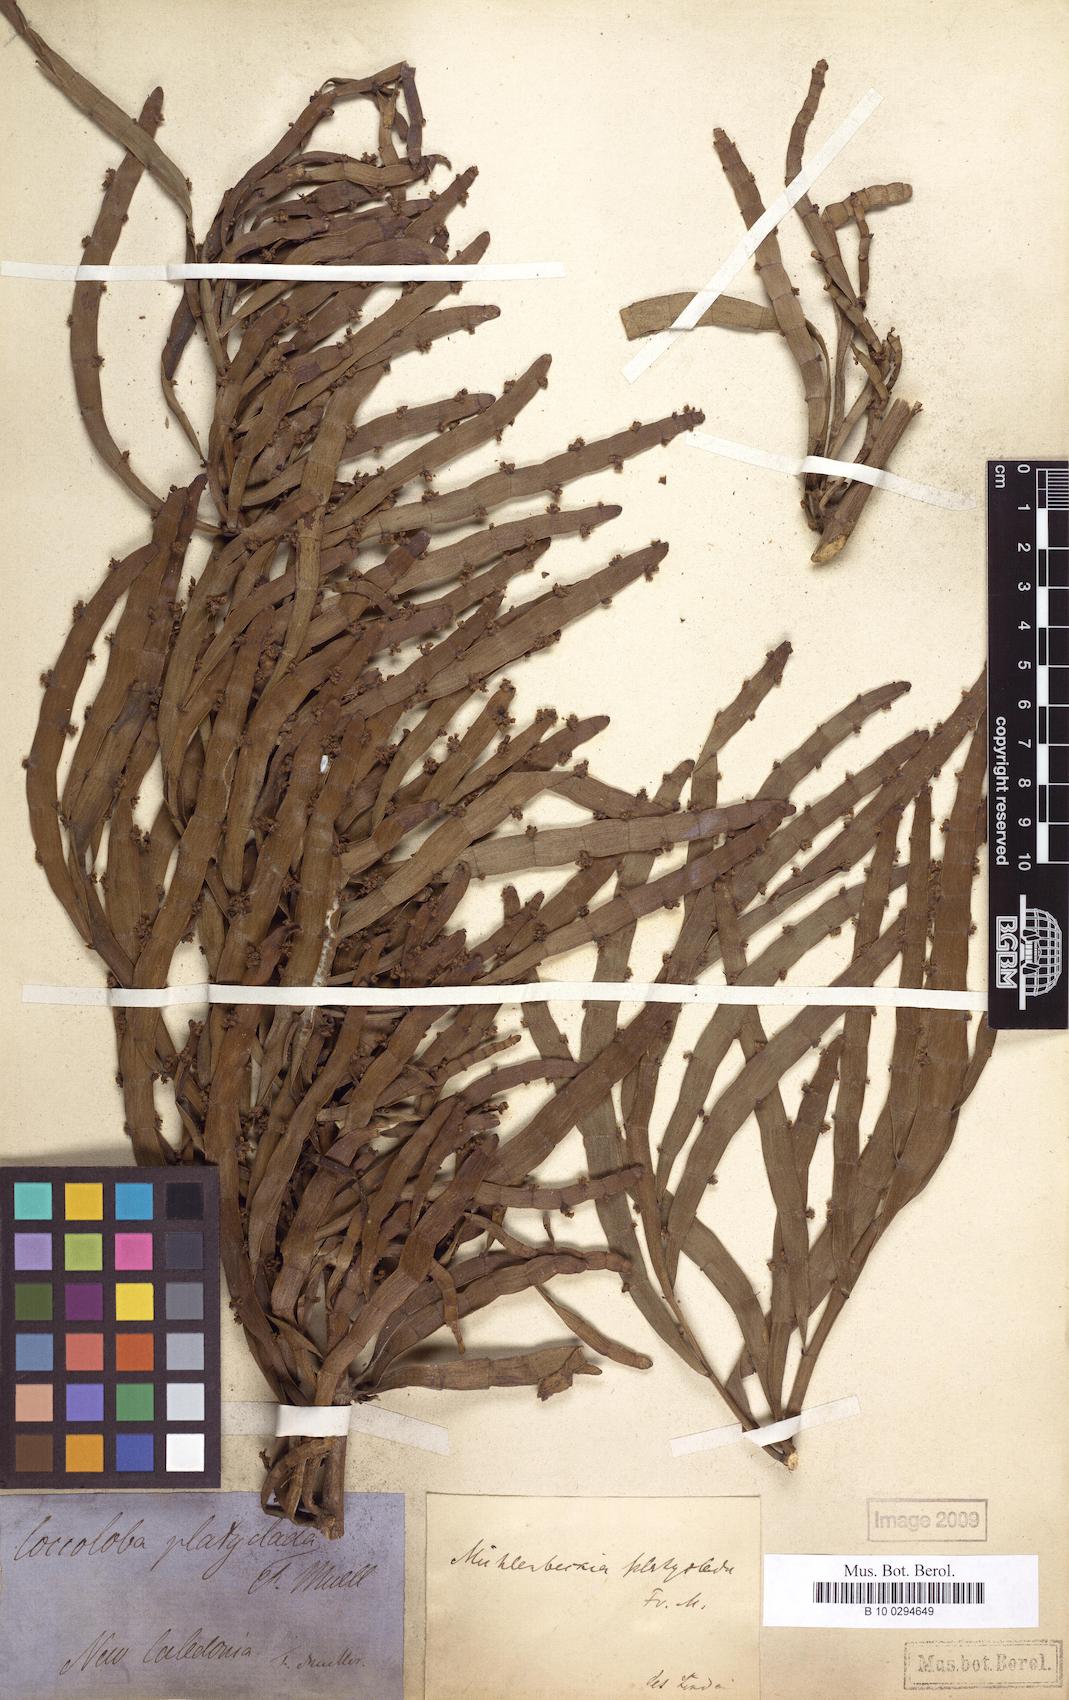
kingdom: Plantae
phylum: Tracheophyta
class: Magnoliopsida
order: Caryophyllales
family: Polygonaceae
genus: Muehlenbeckia
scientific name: Muehlenbeckia platyclada
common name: Tapewormplant
